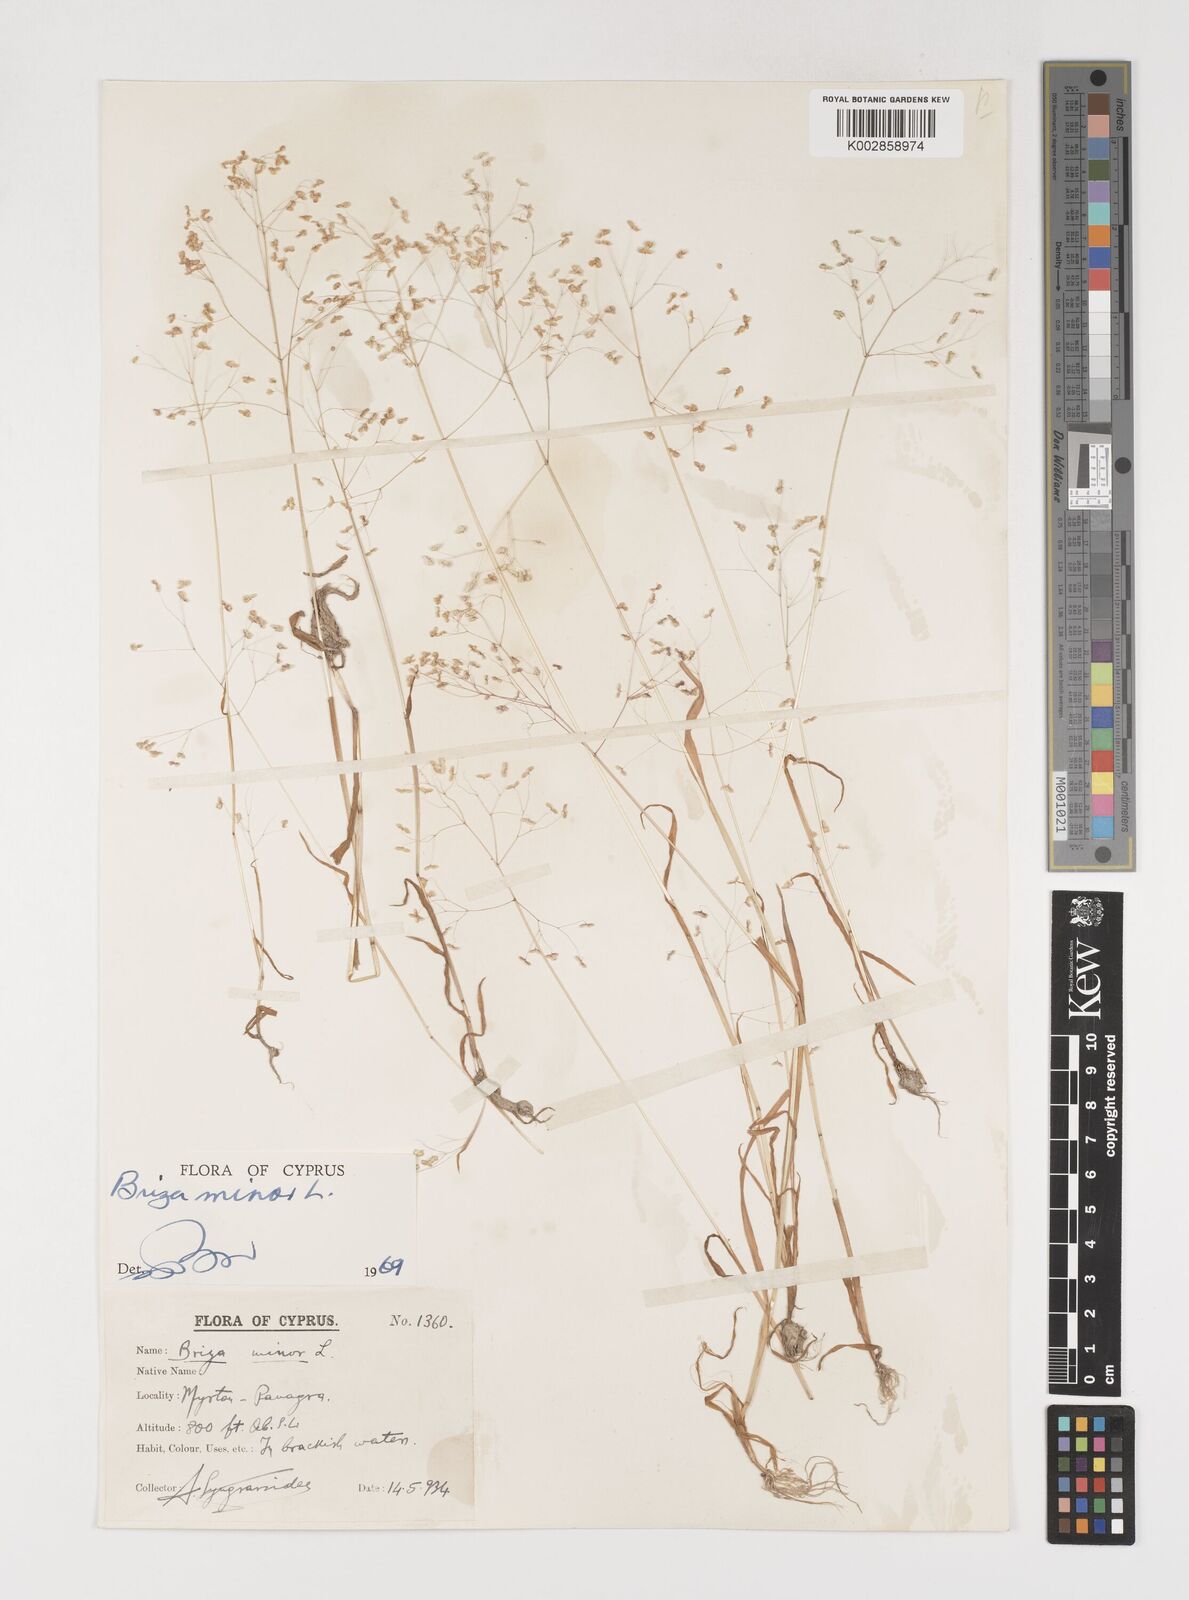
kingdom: Plantae
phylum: Tracheophyta
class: Liliopsida
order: Poales
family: Poaceae
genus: Briza
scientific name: Briza minor
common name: Lesser quaking-grass
